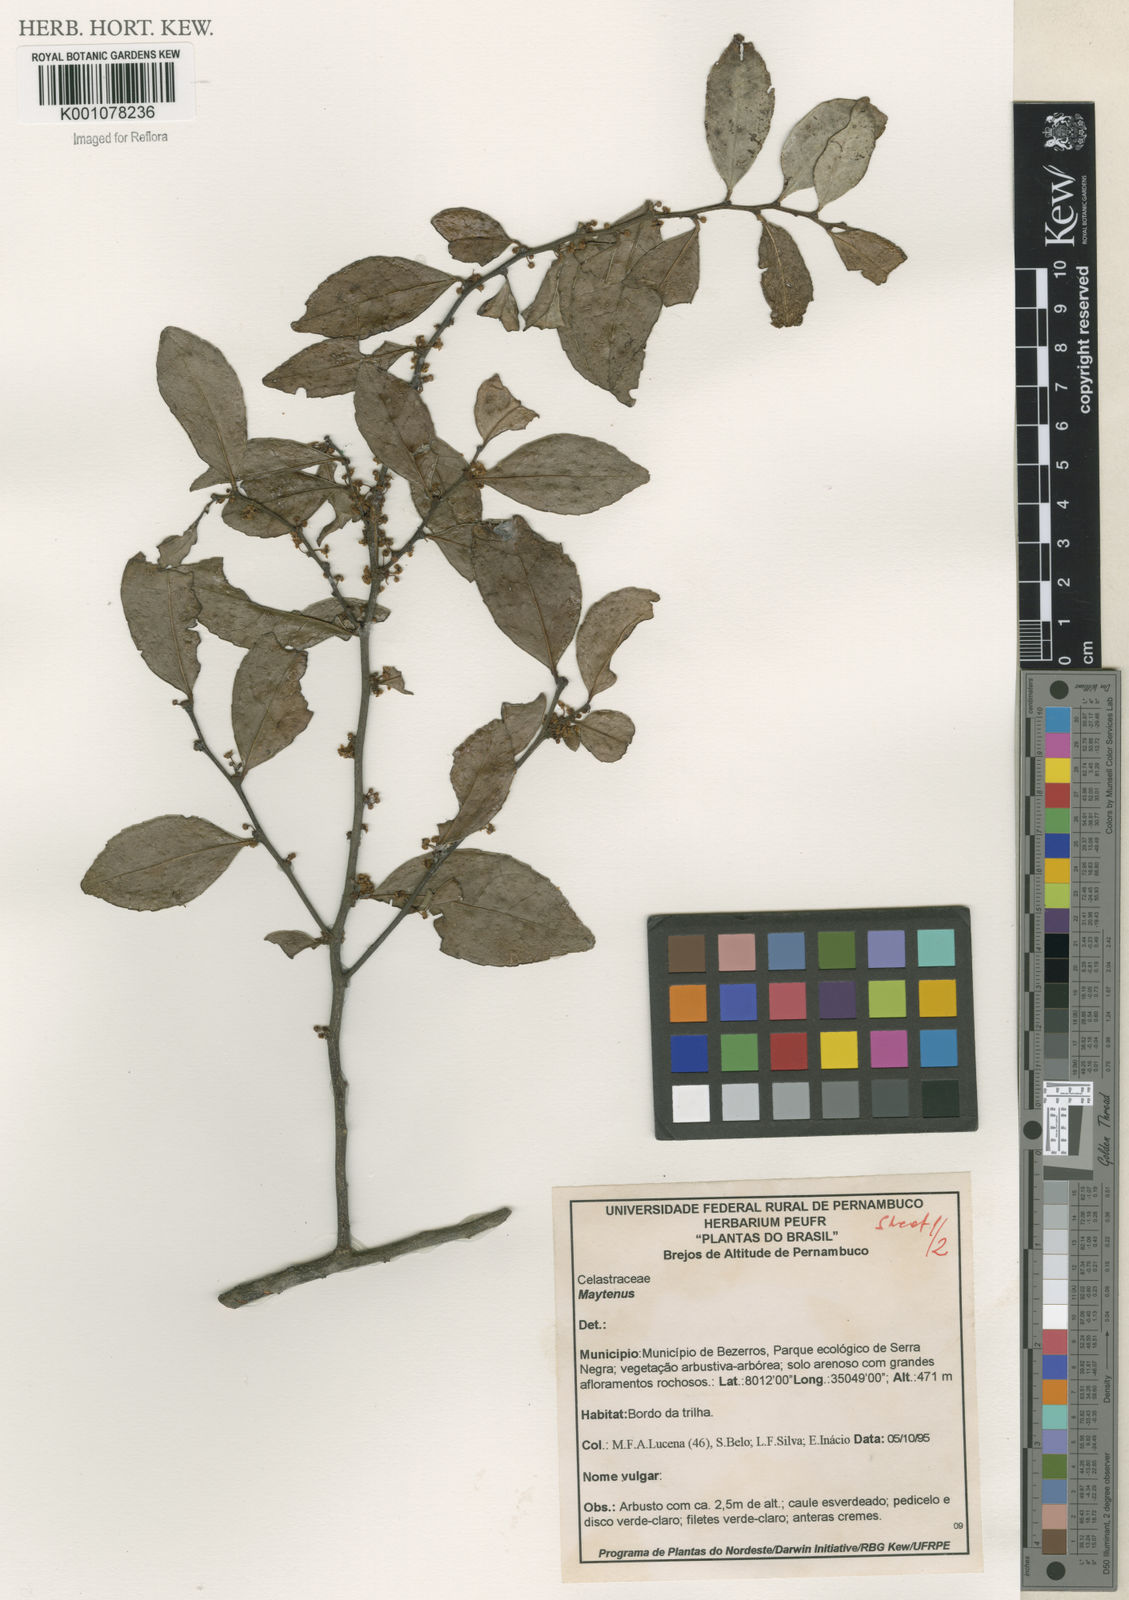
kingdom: Plantae
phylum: Tracheophyta
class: Magnoliopsida
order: Celastrales
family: Celastraceae
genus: Maytenus
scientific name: Maytenus
